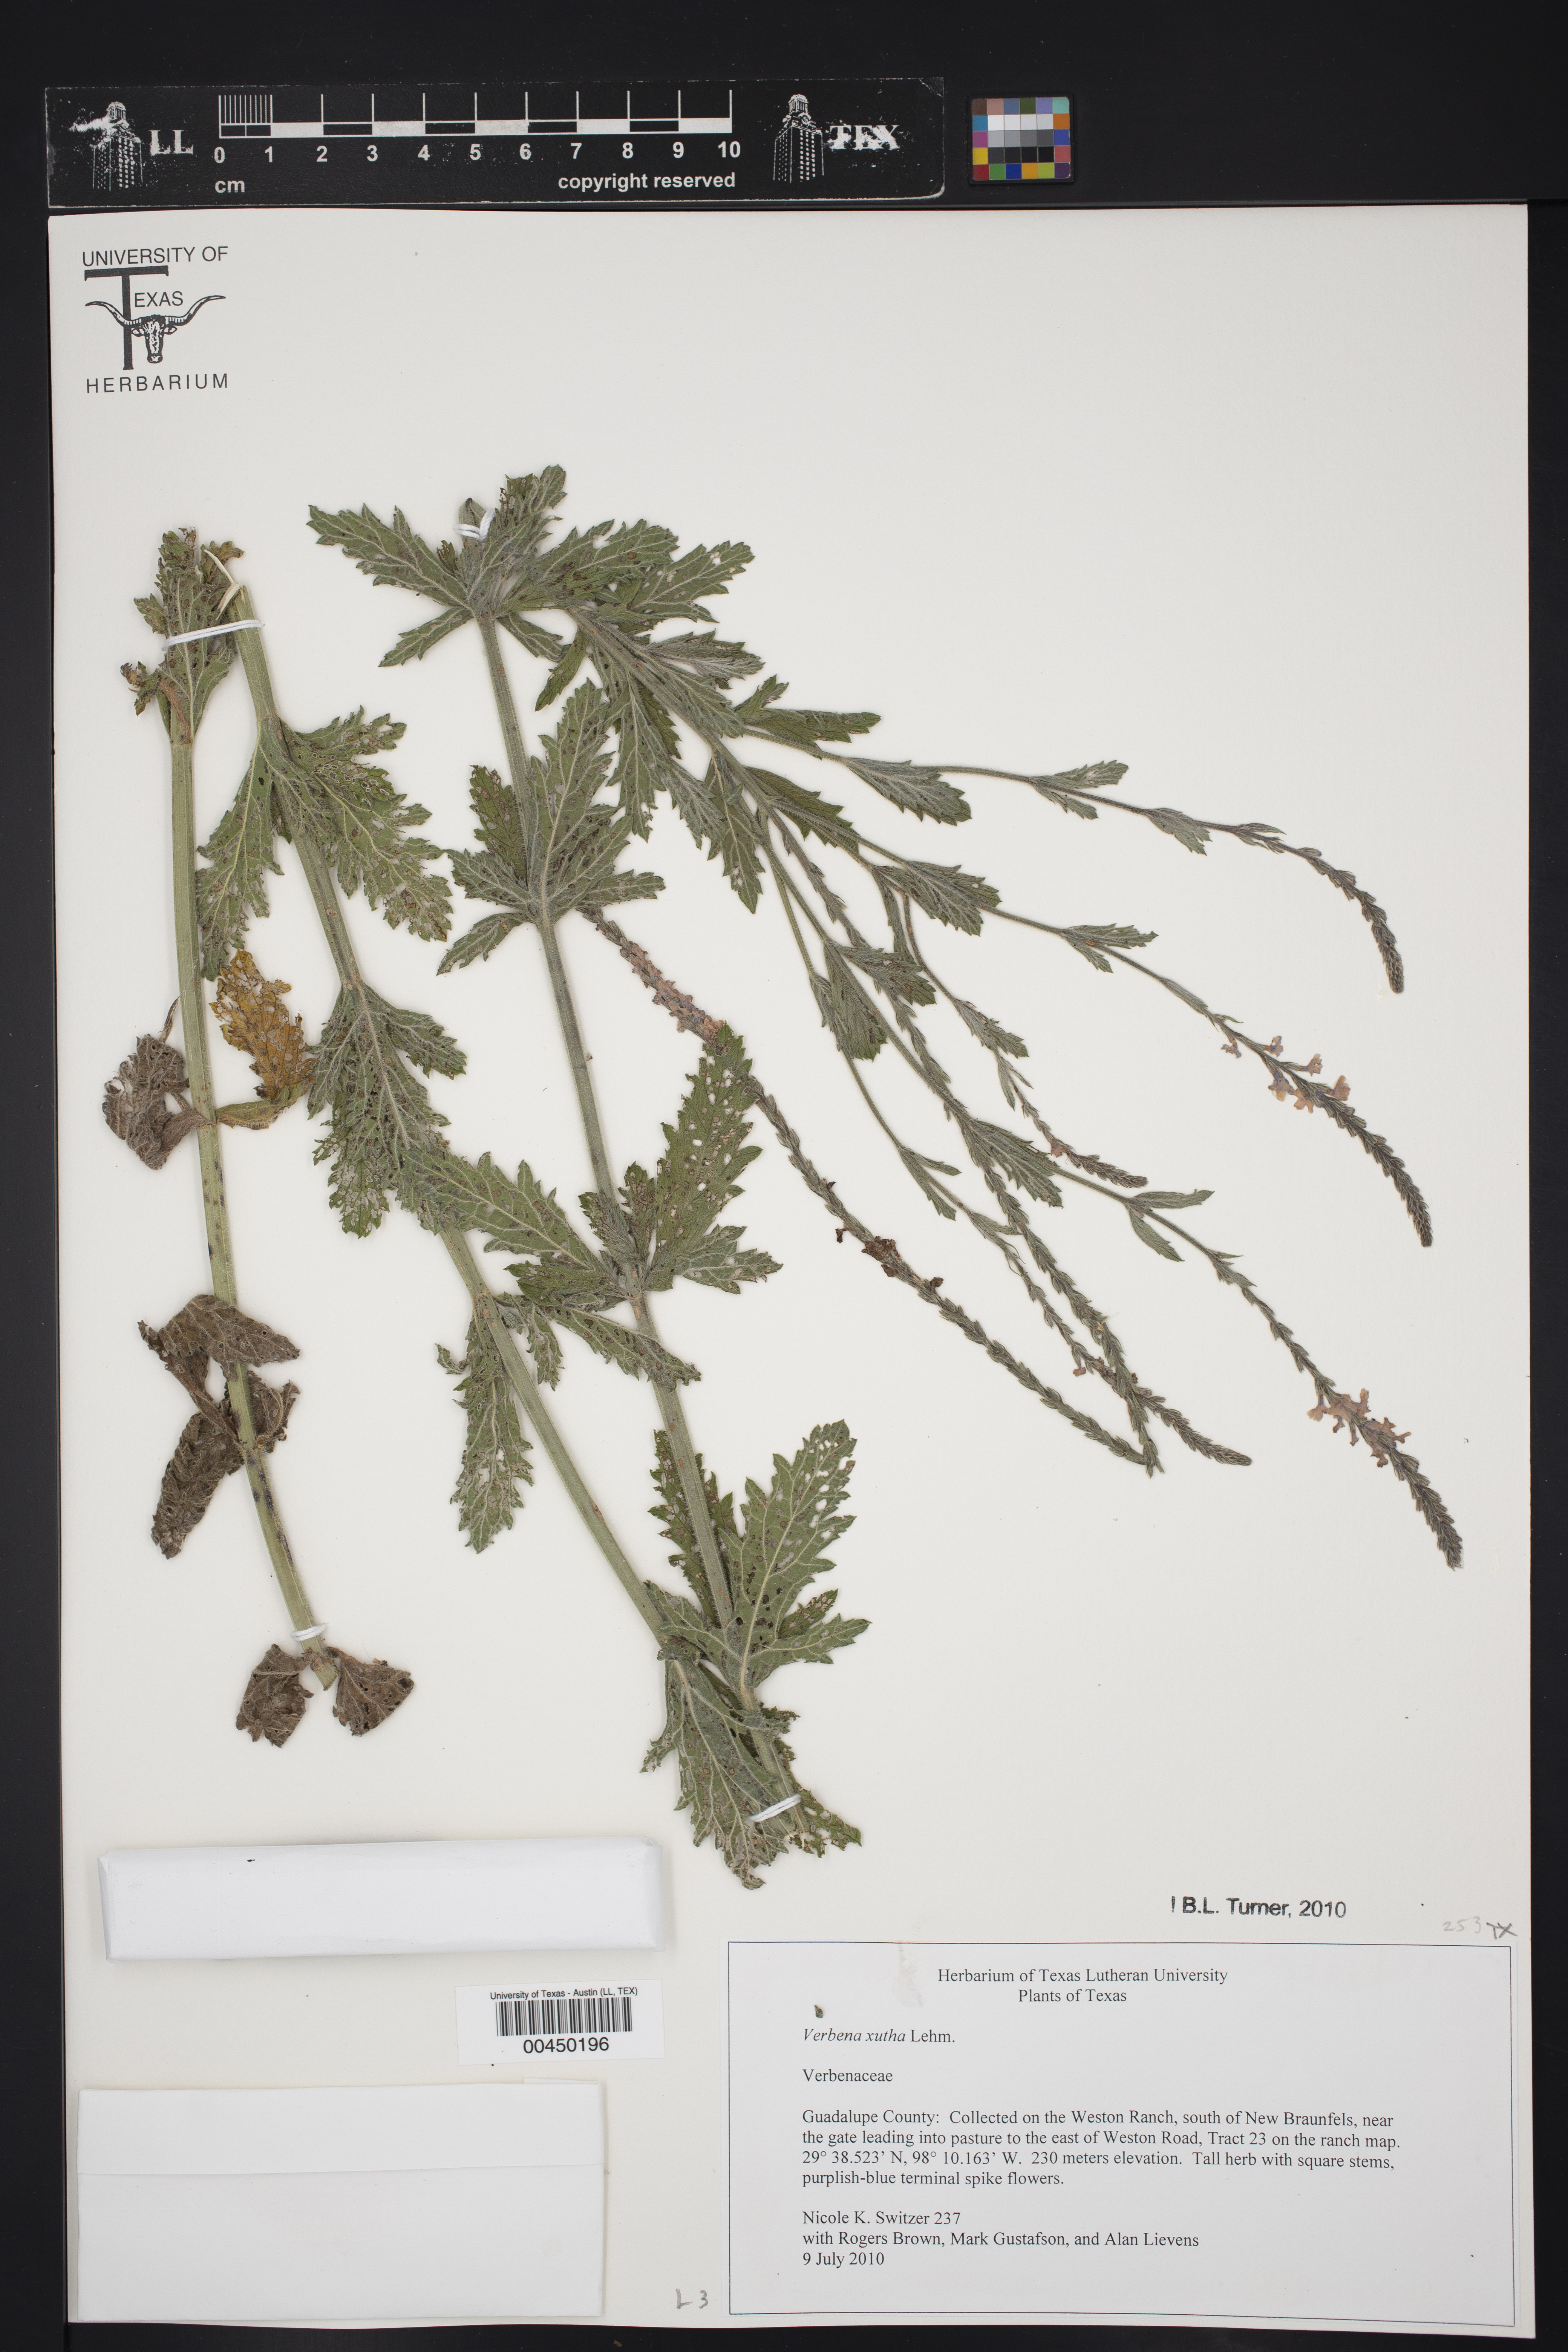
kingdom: Plantae
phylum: Tracheophyta
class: Magnoliopsida
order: Lamiales
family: Verbenaceae
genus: Verbena
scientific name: Verbena xutha
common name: Gulf vervain
